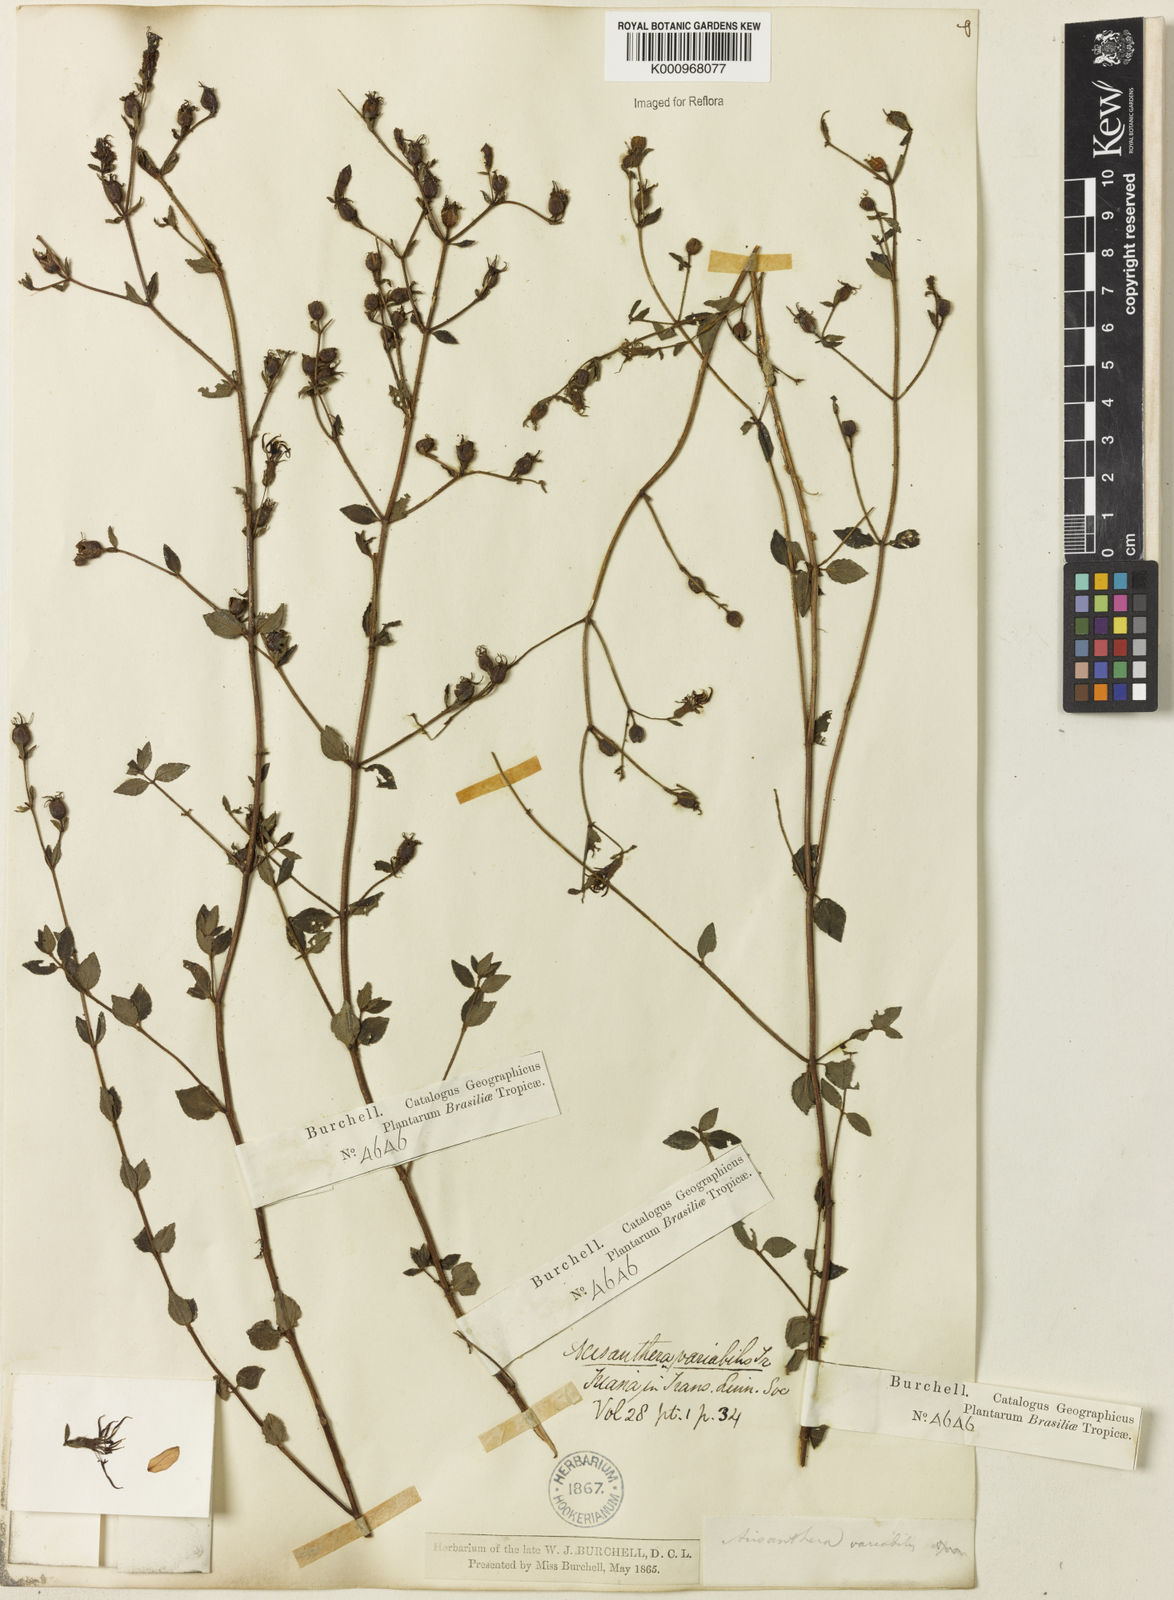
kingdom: Plantae
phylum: Tracheophyta
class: Magnoliopsida
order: Myrtales
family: Melastomataceae
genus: Acisanthera
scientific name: Acisanthera variabilis
